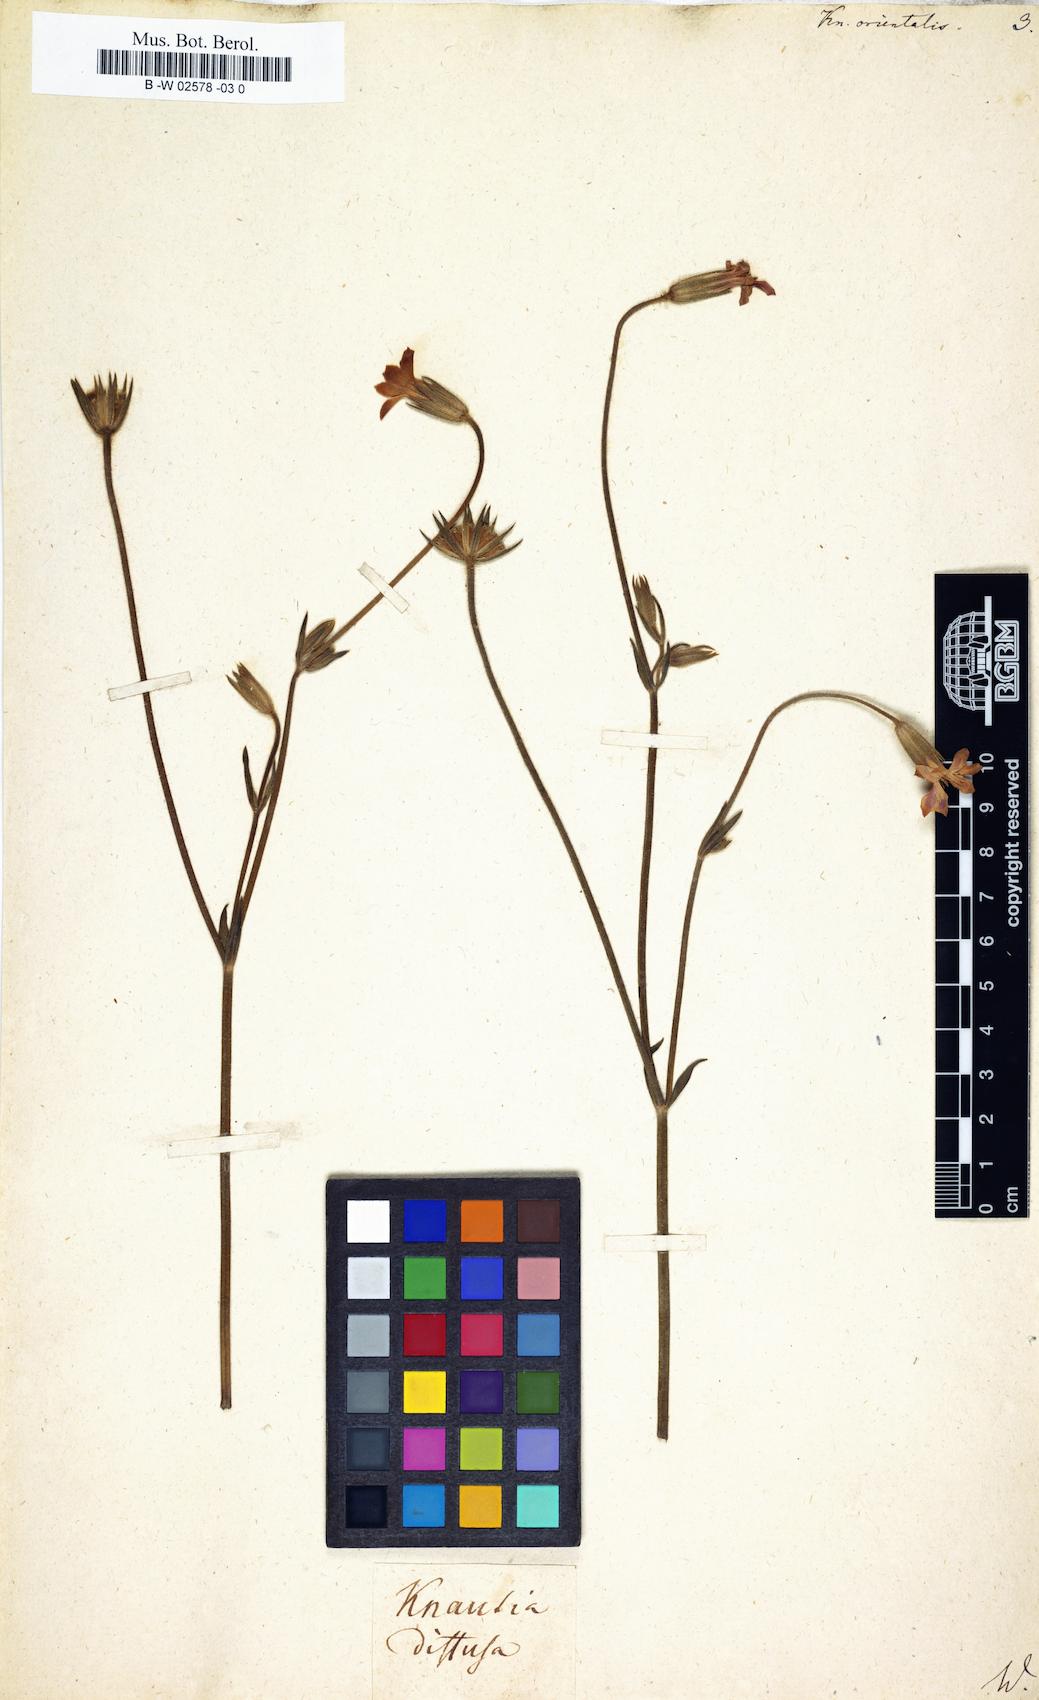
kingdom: Plantae
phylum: Tracheophyta
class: Magnoliopsida
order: Dipsacales
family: Caprifoliaceae
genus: Knautia
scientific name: Knautia orientalis
